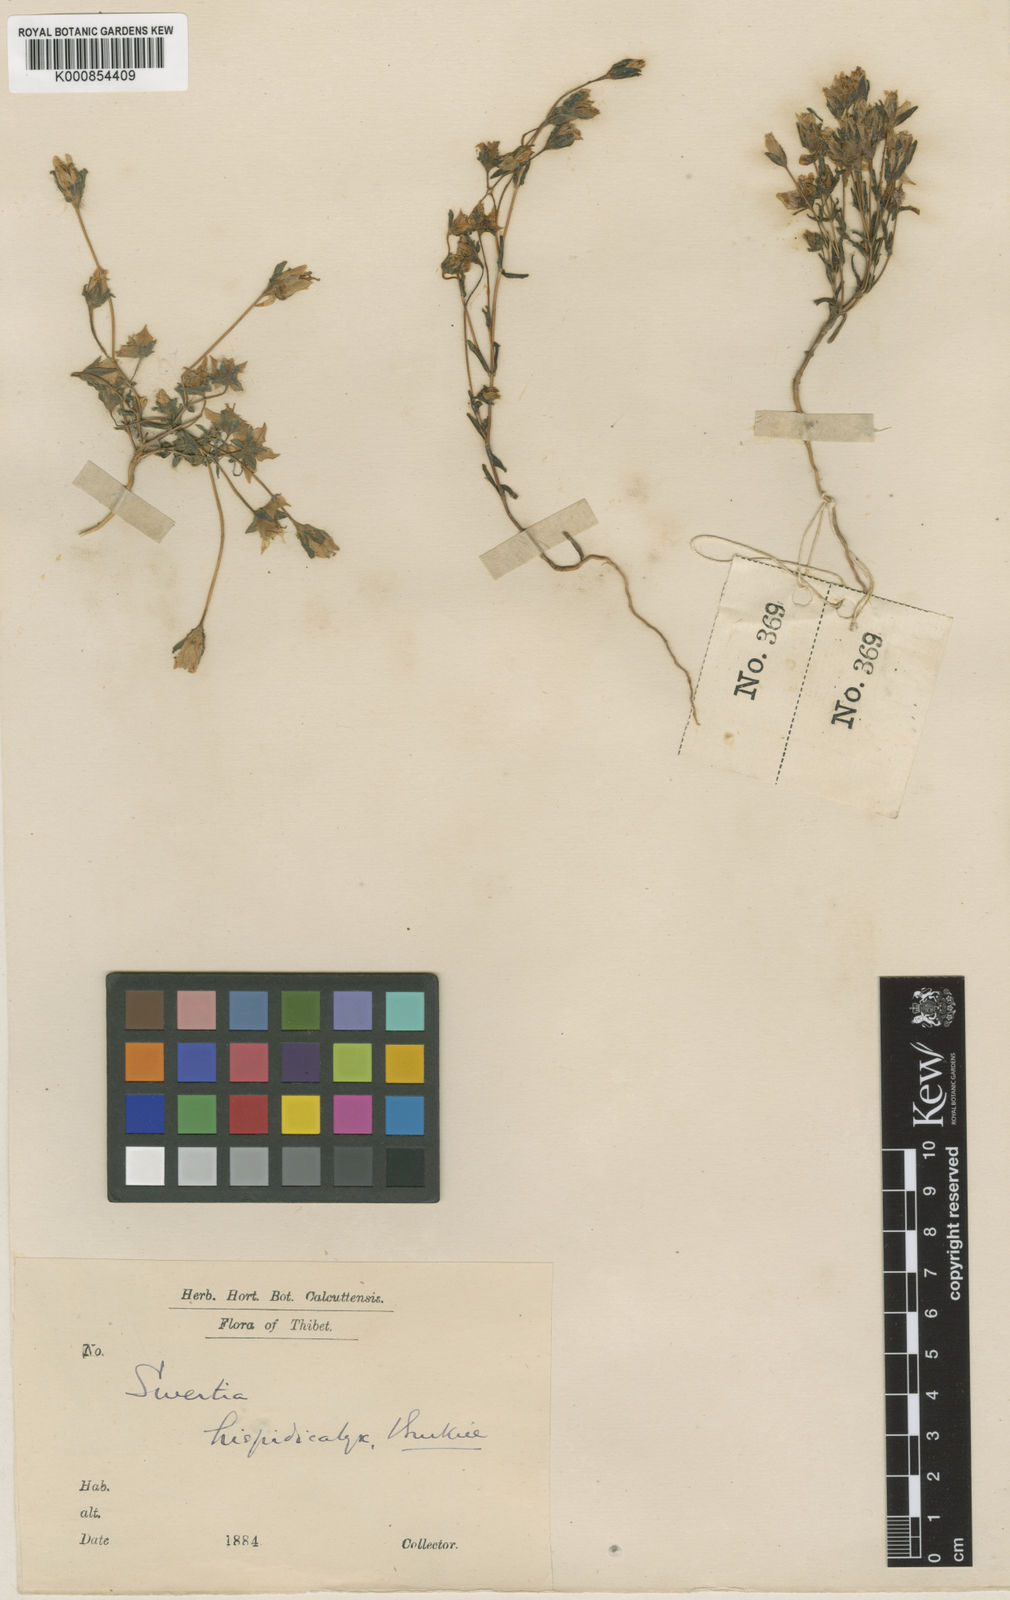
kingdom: Plantae
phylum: Tracheophyta
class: Magnoliopsida
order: Gentianales
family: Gentianaceae
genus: Swertia
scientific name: Swertia hispidicalyx
